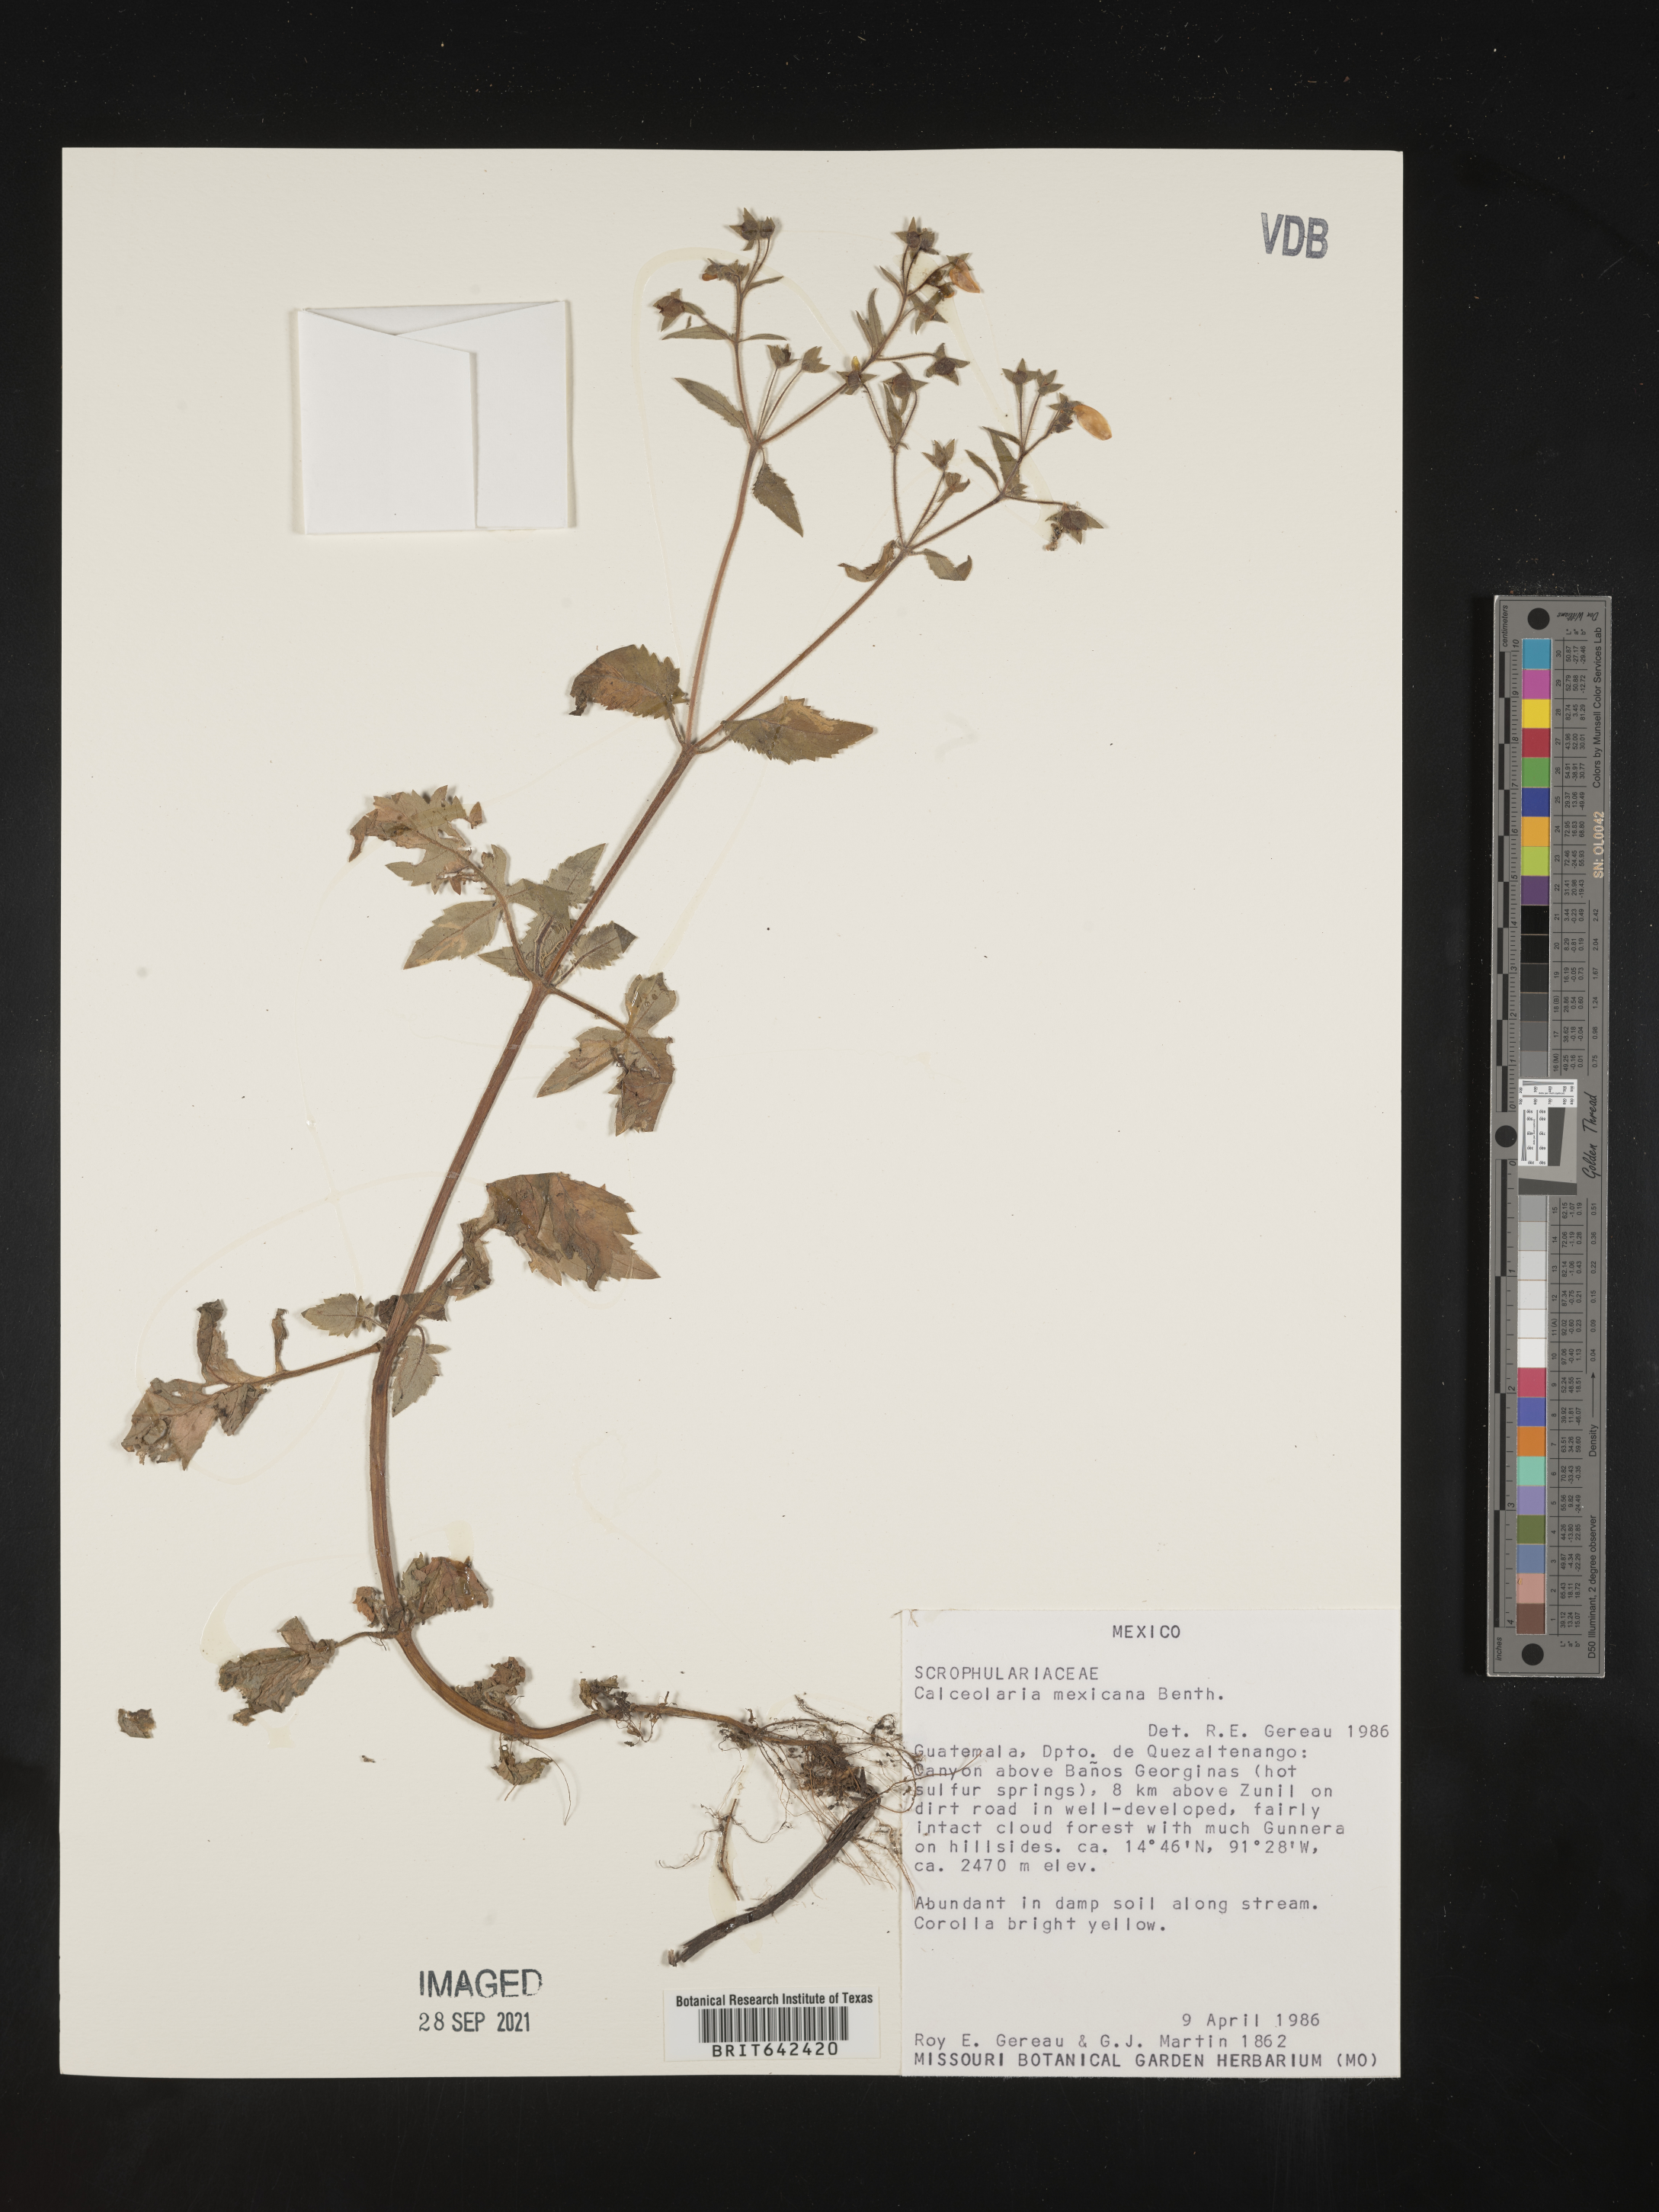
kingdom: Plantae
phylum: Tracheophyta
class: Magnoliopsida
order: Lamiales
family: Calceolariaceae
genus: Calceolaria
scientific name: Calceolaria mexicana
